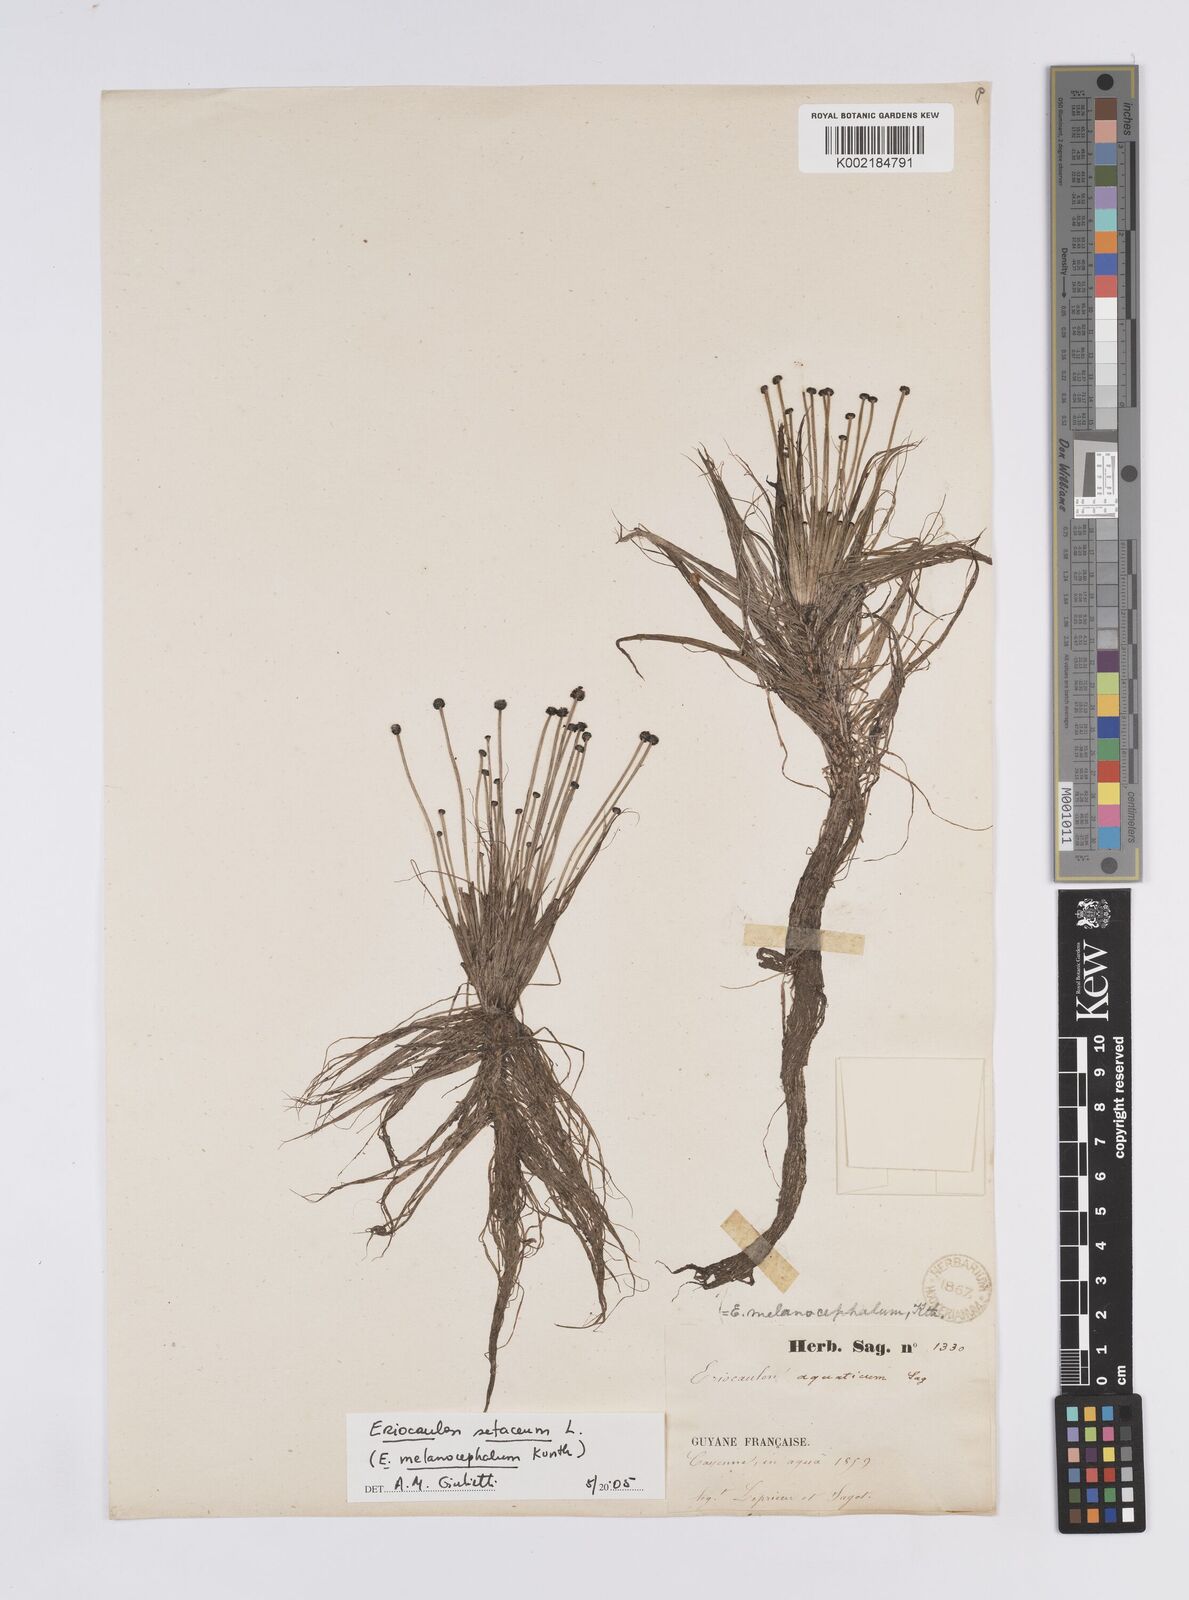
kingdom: Plantae
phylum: Tracheophyta
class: Liliopsida
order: Poales
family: Eriocaulaceae
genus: Eriocaulon
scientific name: Eriocaulon setaceum
